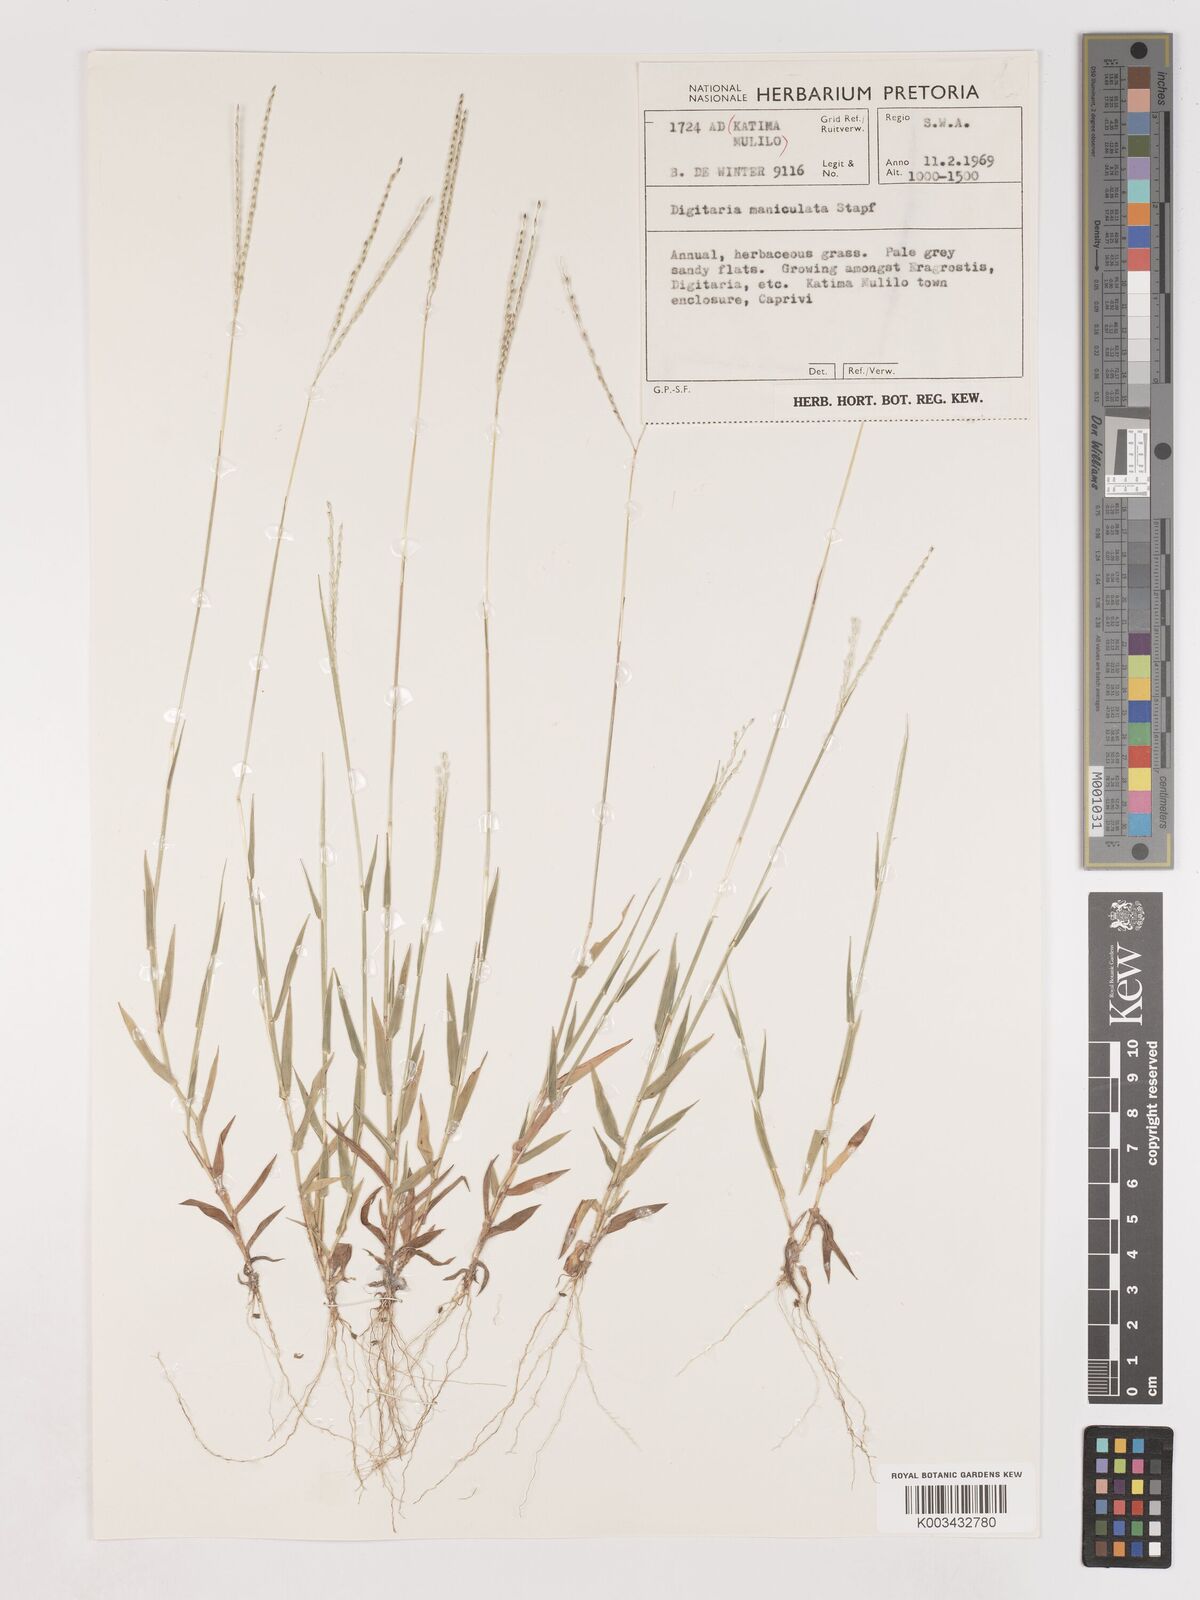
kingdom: Plantae
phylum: Tracheophyta
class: Liliopsida
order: Poales
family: Poaceae
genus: Digitaria
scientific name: Digitaria maniculata
